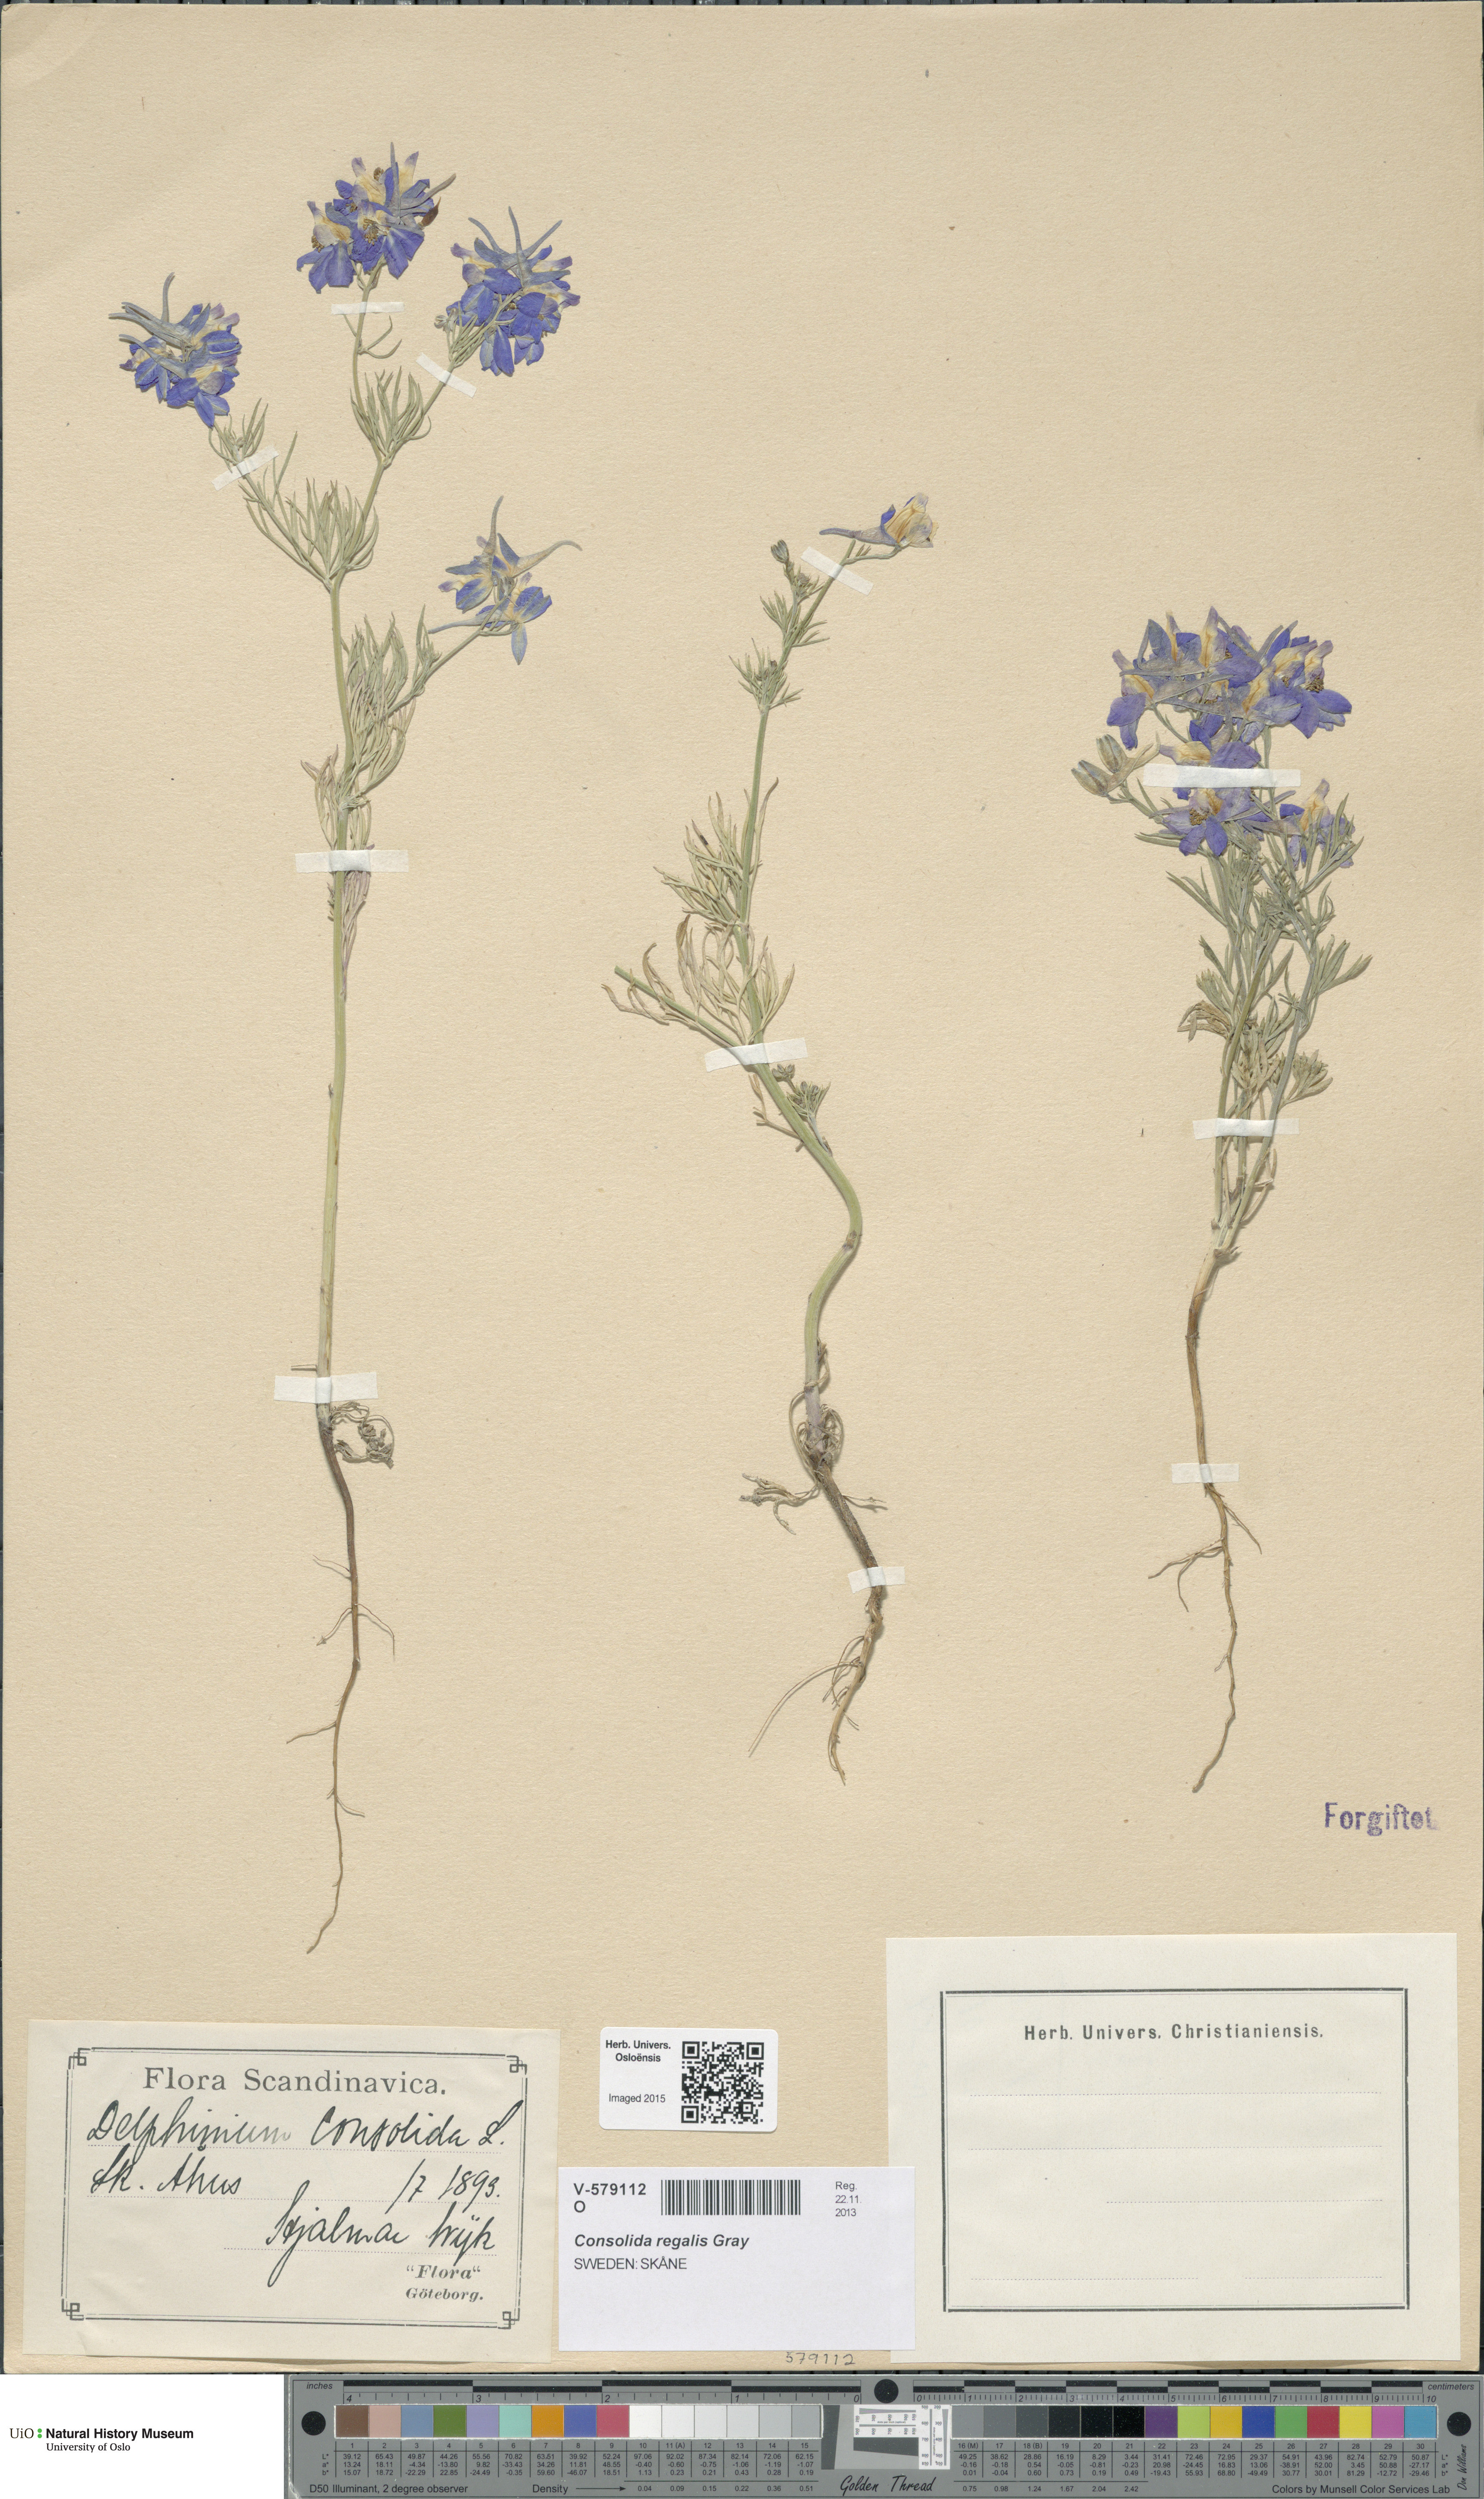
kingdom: Plantae
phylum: Tracheophyta
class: Magnoliopsida
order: Ranunculales
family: Ranunculaceae
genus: Delphinium
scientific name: Delphinium consolida
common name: Branching larkspur
